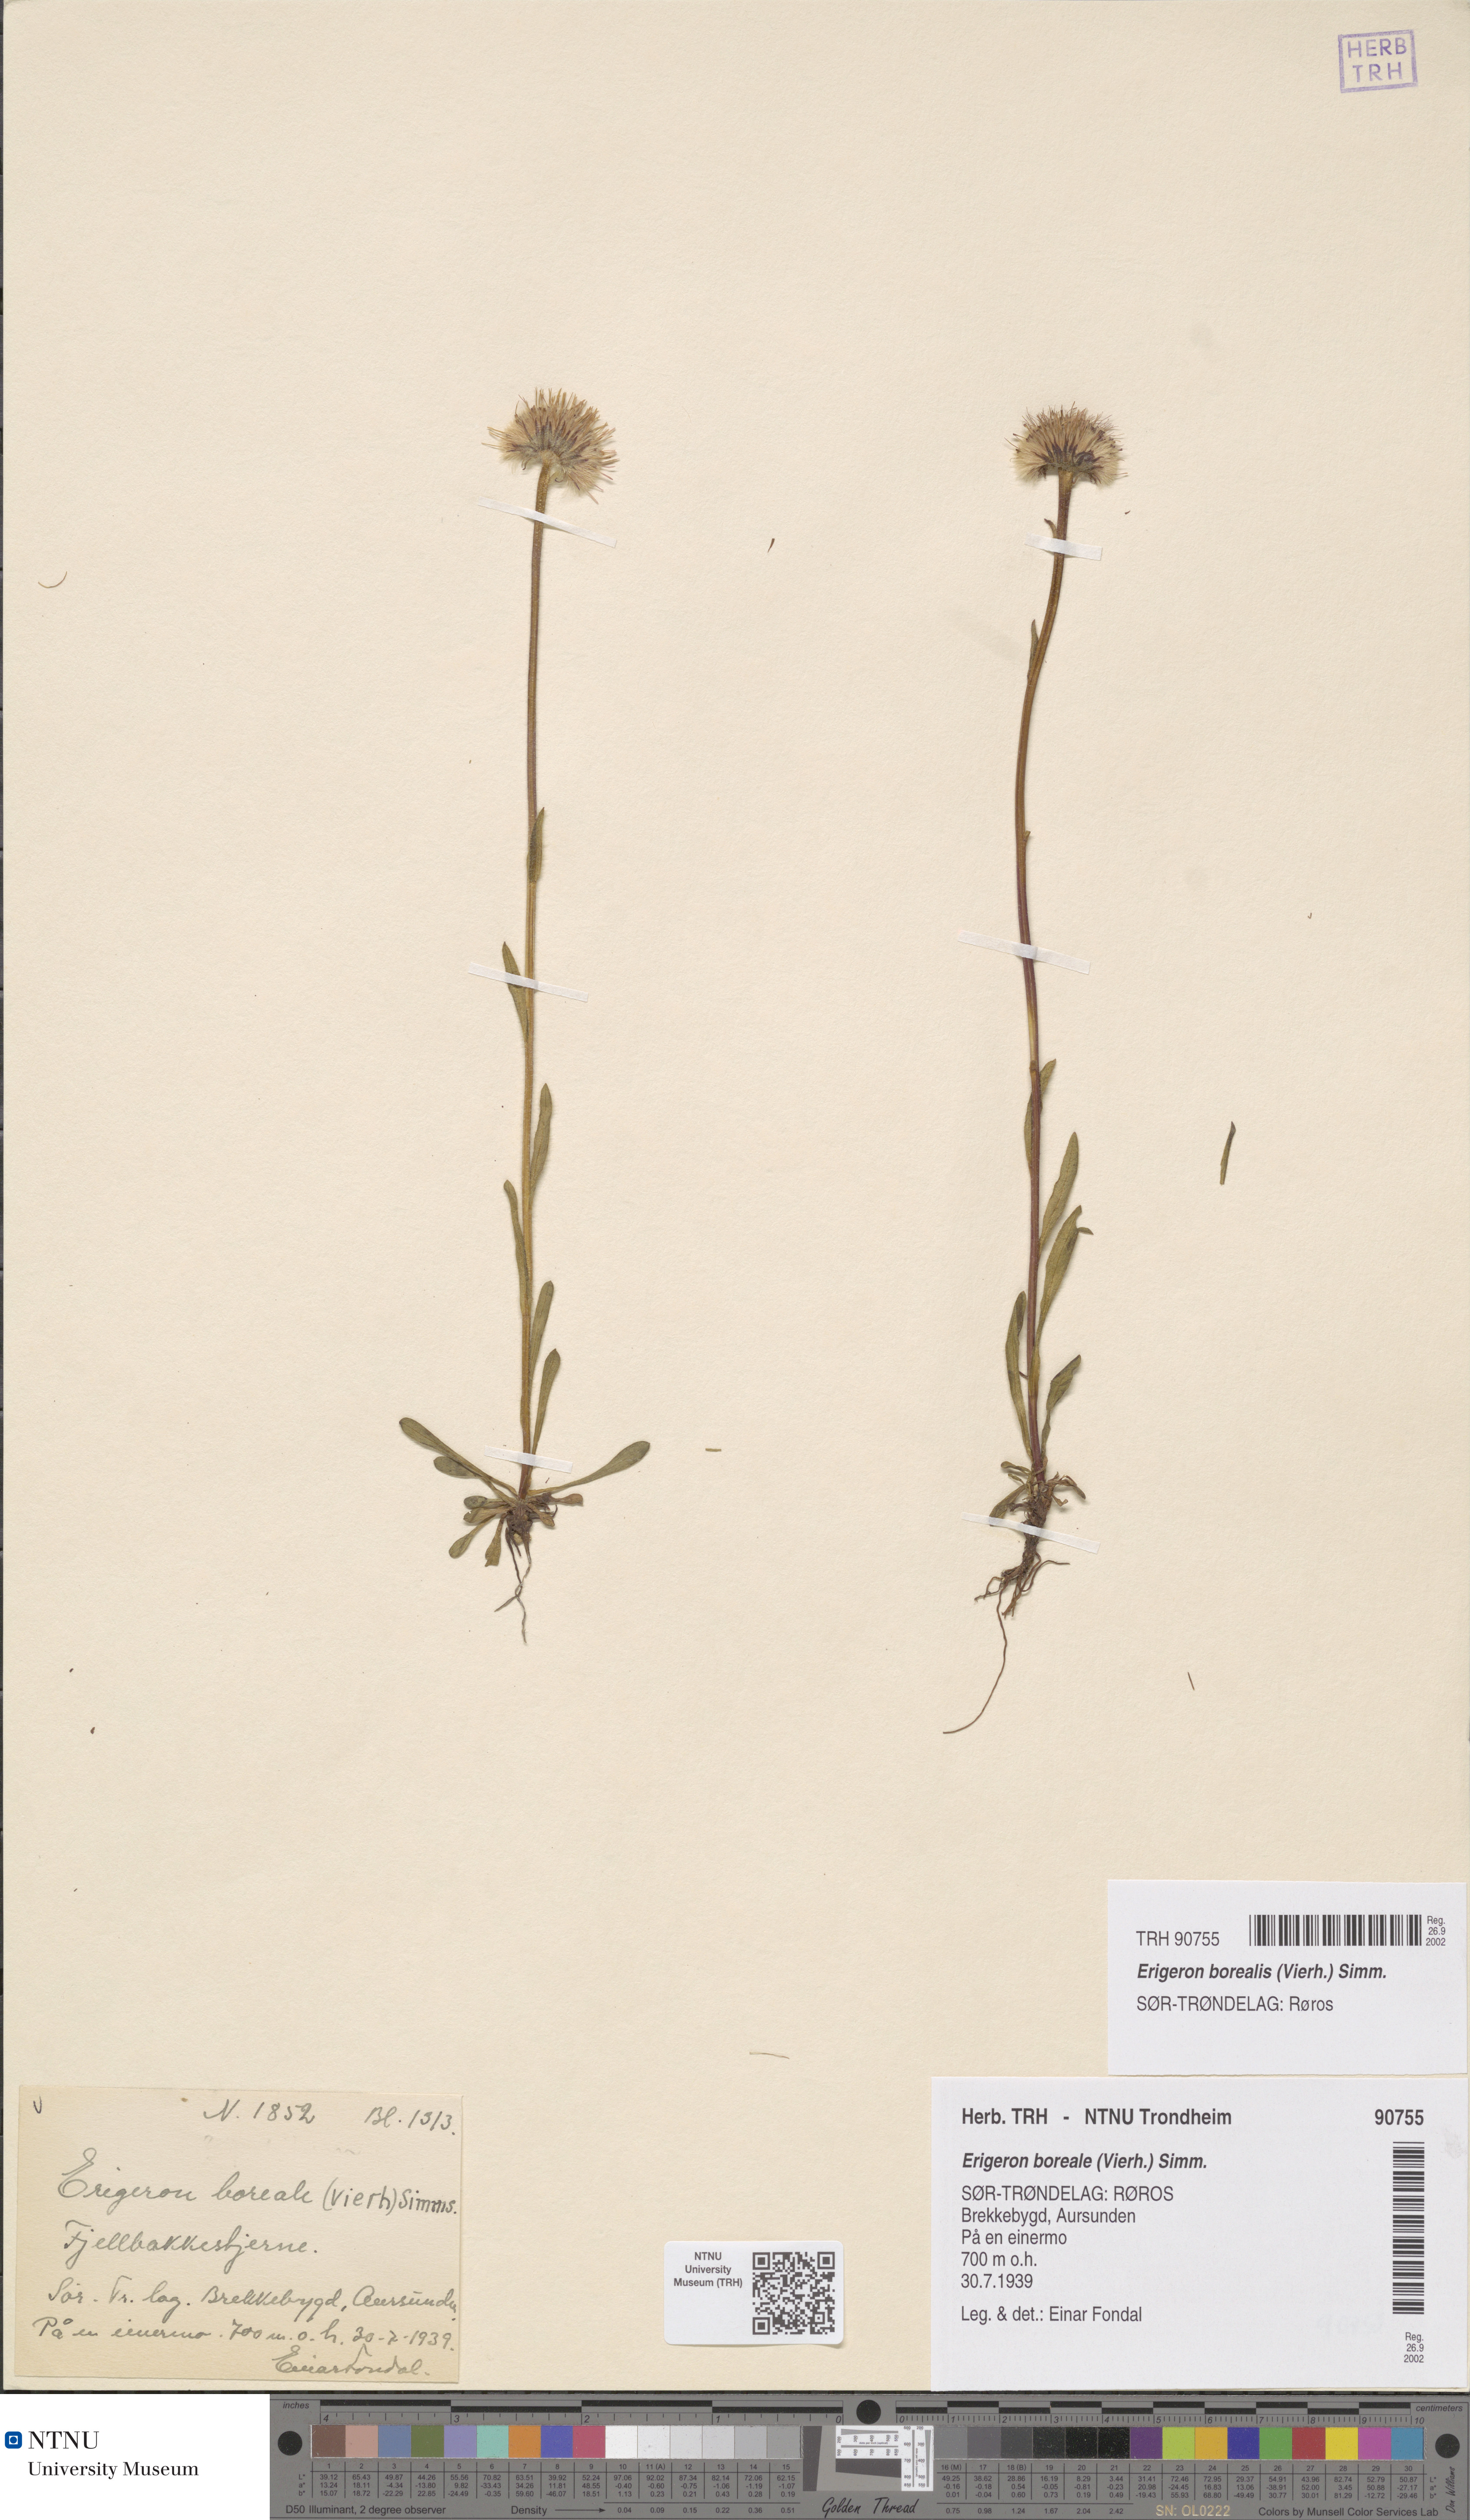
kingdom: Plantae
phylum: Tracheophyta
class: Magnoliopsida
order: Asterales
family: Asteraceae
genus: Erigeron
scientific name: Erigeron borealis
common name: Alpine fleabane
